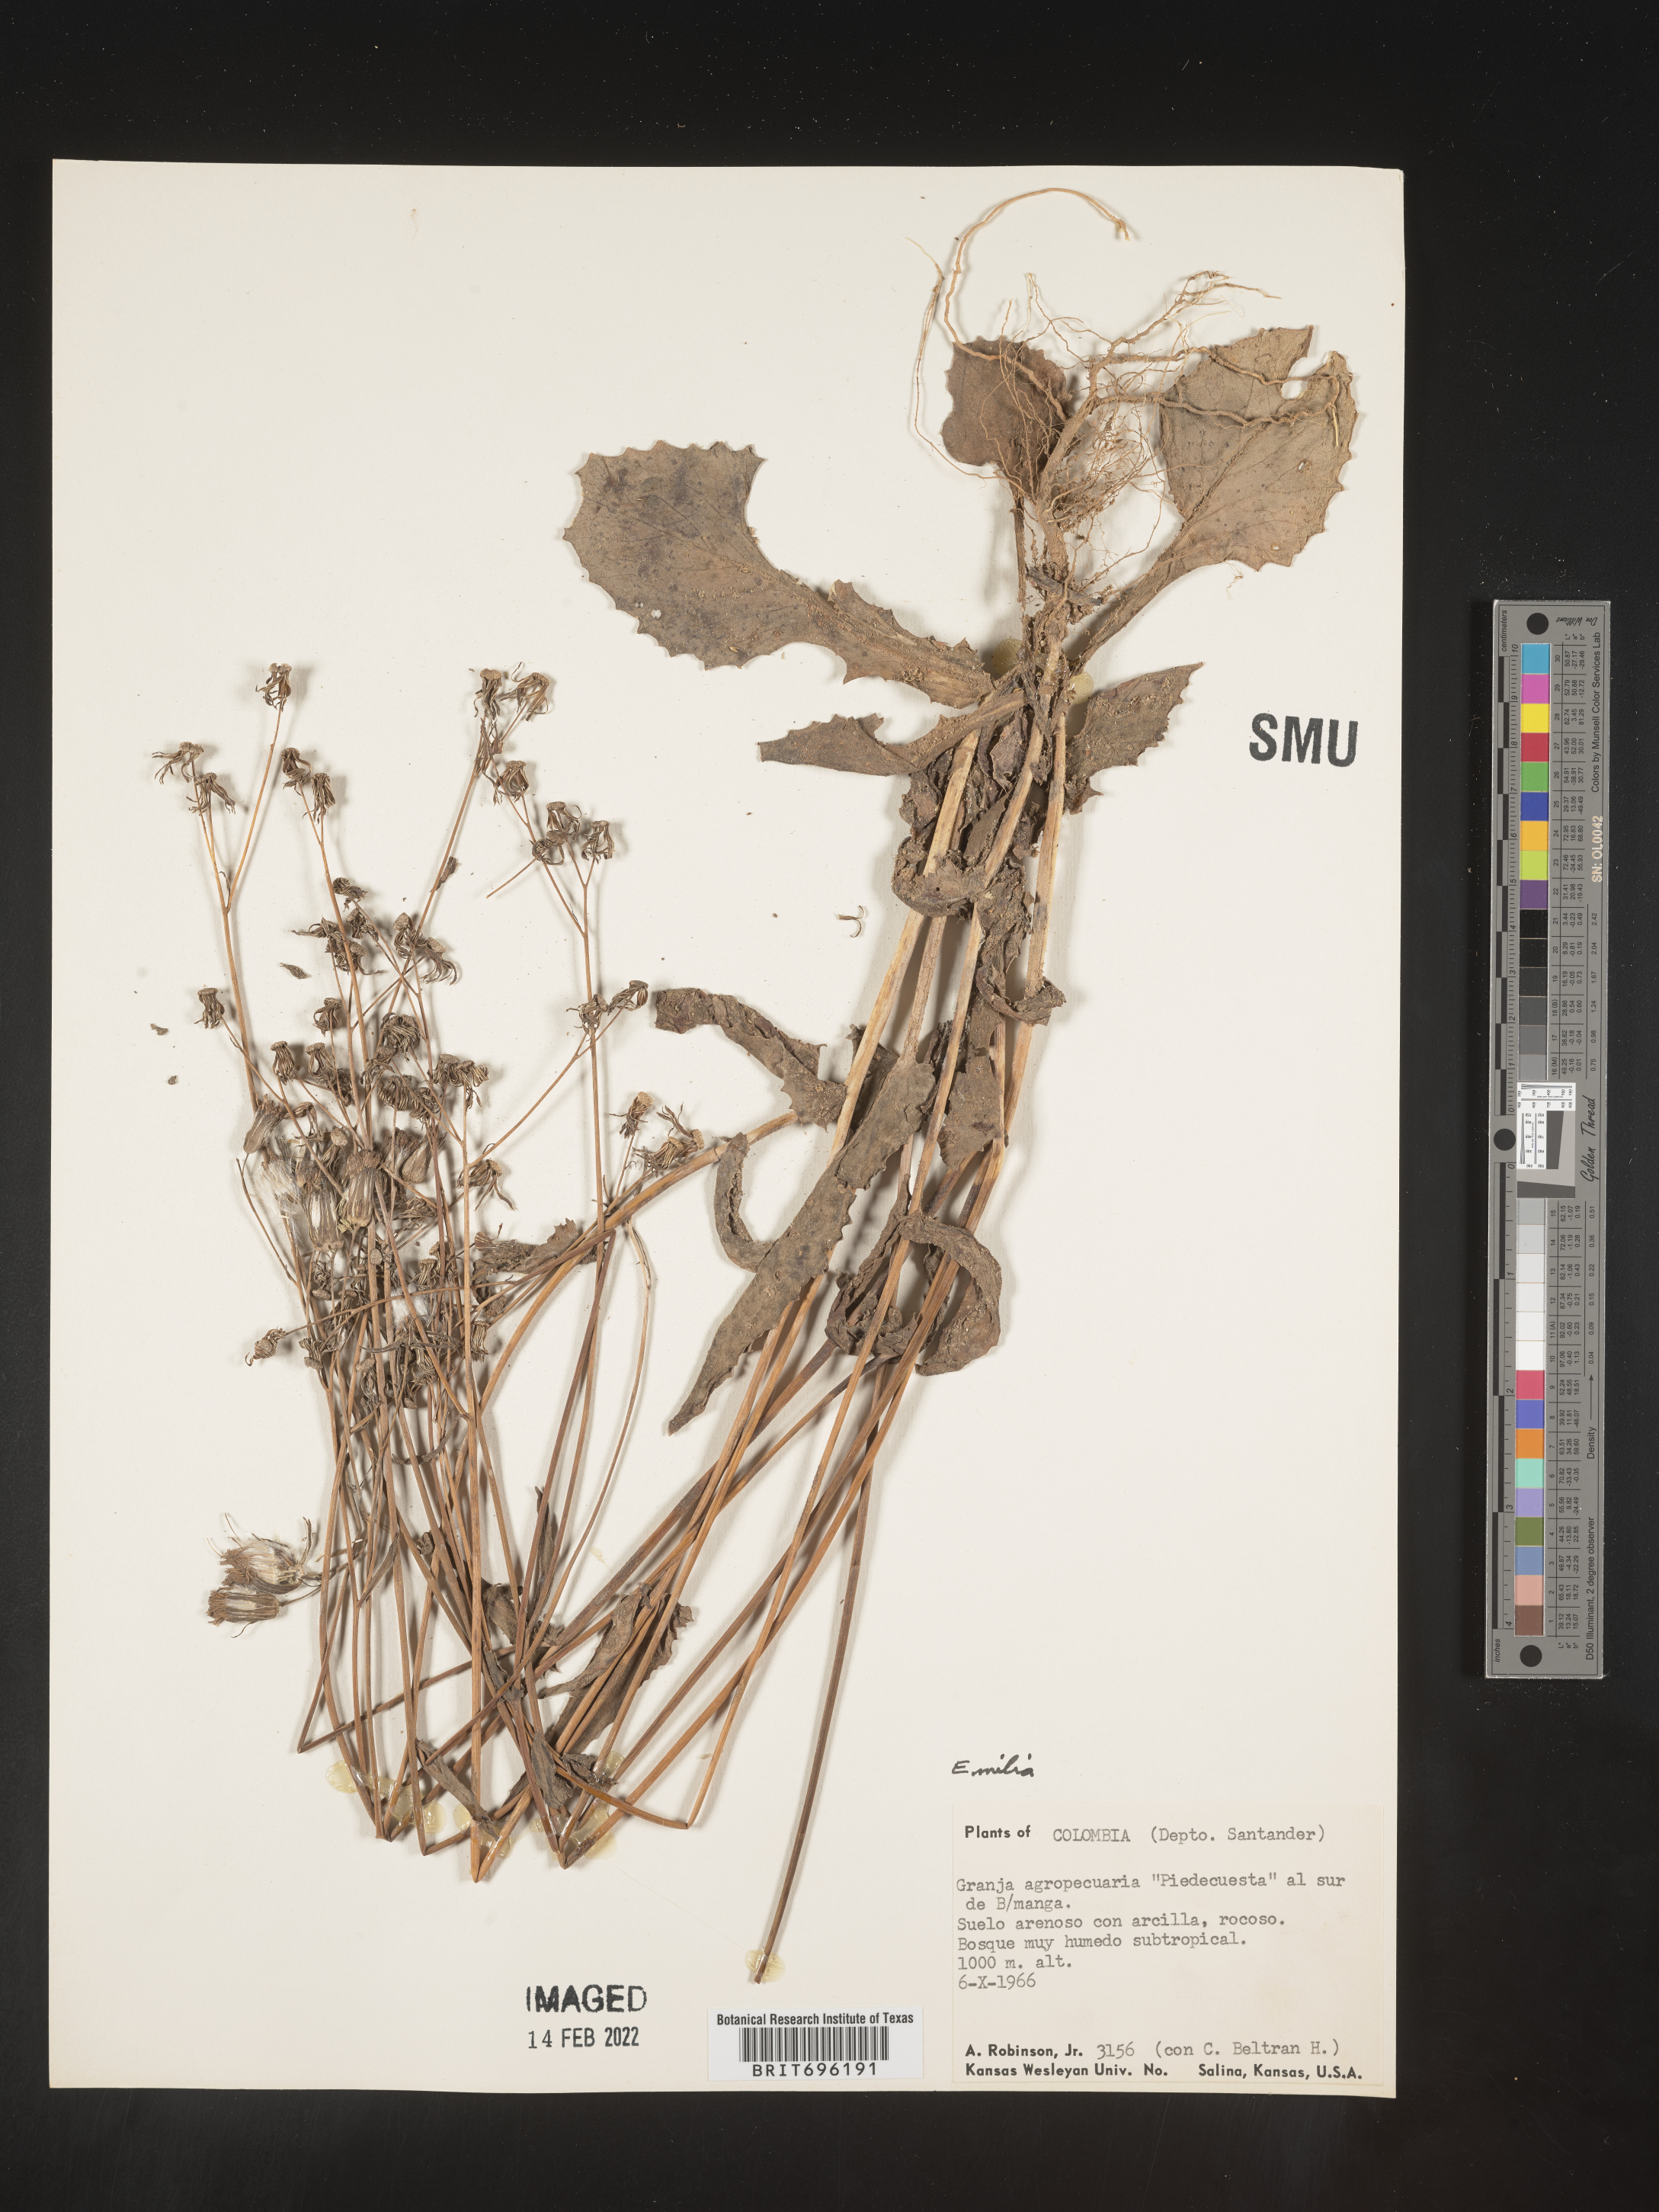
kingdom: Plantae
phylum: Tracheophyta
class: Magnoliopsida
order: Asterales
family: Asteraceae
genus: Emilia
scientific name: Emilia
